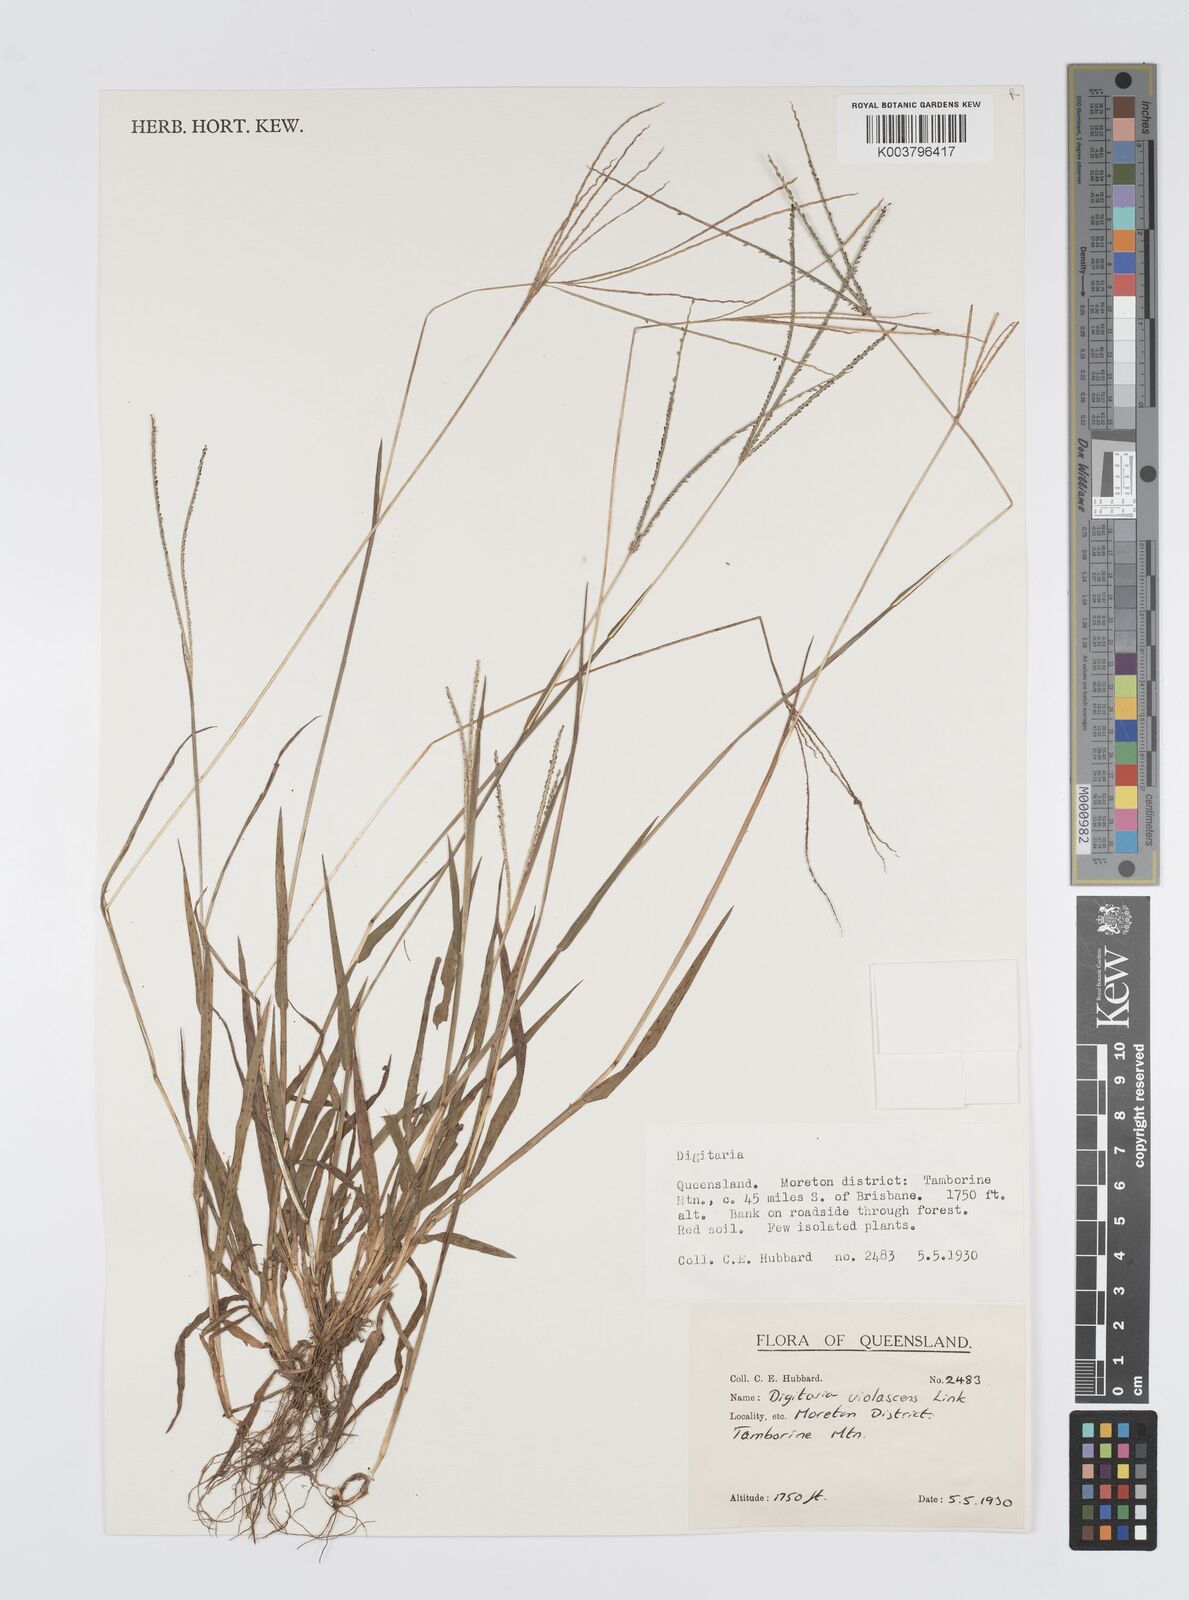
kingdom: Plantae
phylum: Tracheophyta
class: Liliopsida
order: Poales
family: Poaceae
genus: Digitaria
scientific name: Digitaria violascens
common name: Violet crabgrass
